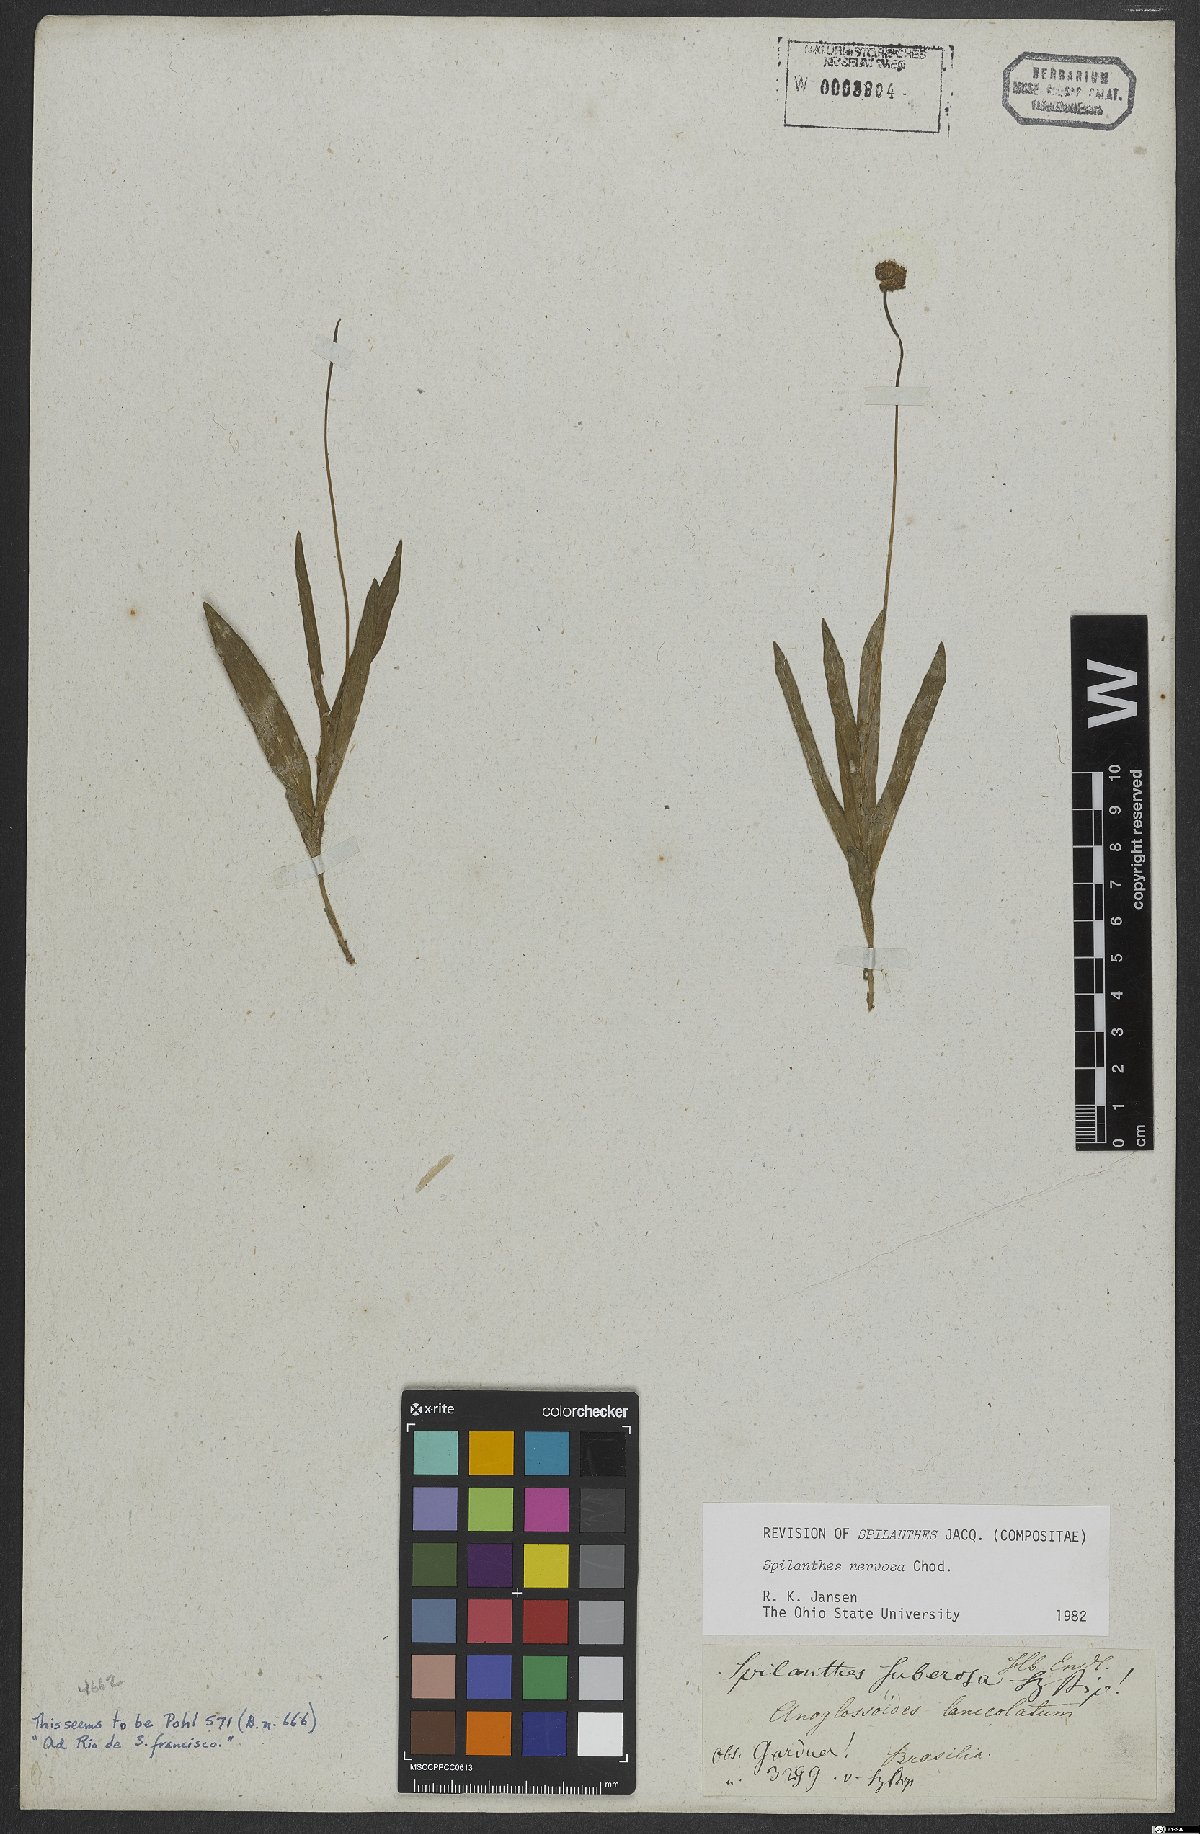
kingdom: Plantae
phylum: Tracheophyta
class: Magnoliopsida
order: Asterales
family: Asteraceae
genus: Spilanthes
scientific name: Spilanthes nervosa
